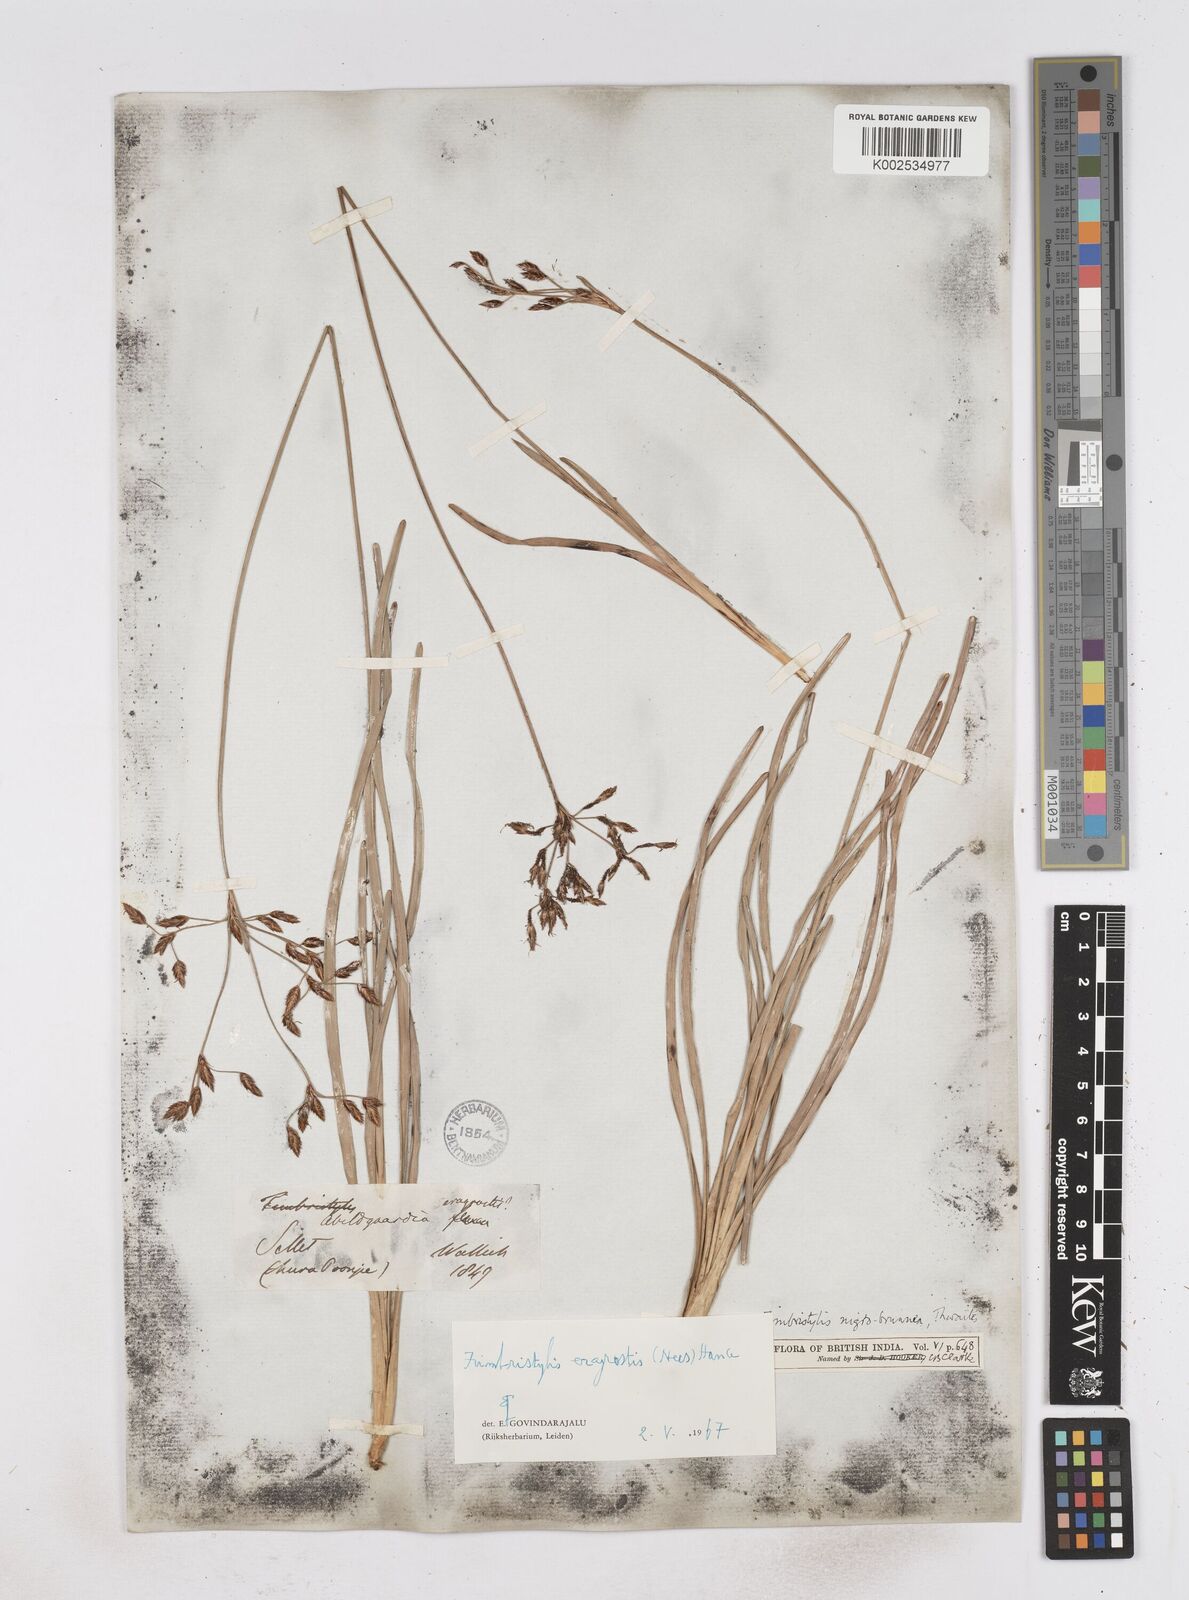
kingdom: Plantae
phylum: Tracheophyta
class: Liliopsida
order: Poales
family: Cyperaceae
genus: Fimbristylis
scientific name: Fimbristylis nigrobrunnea
